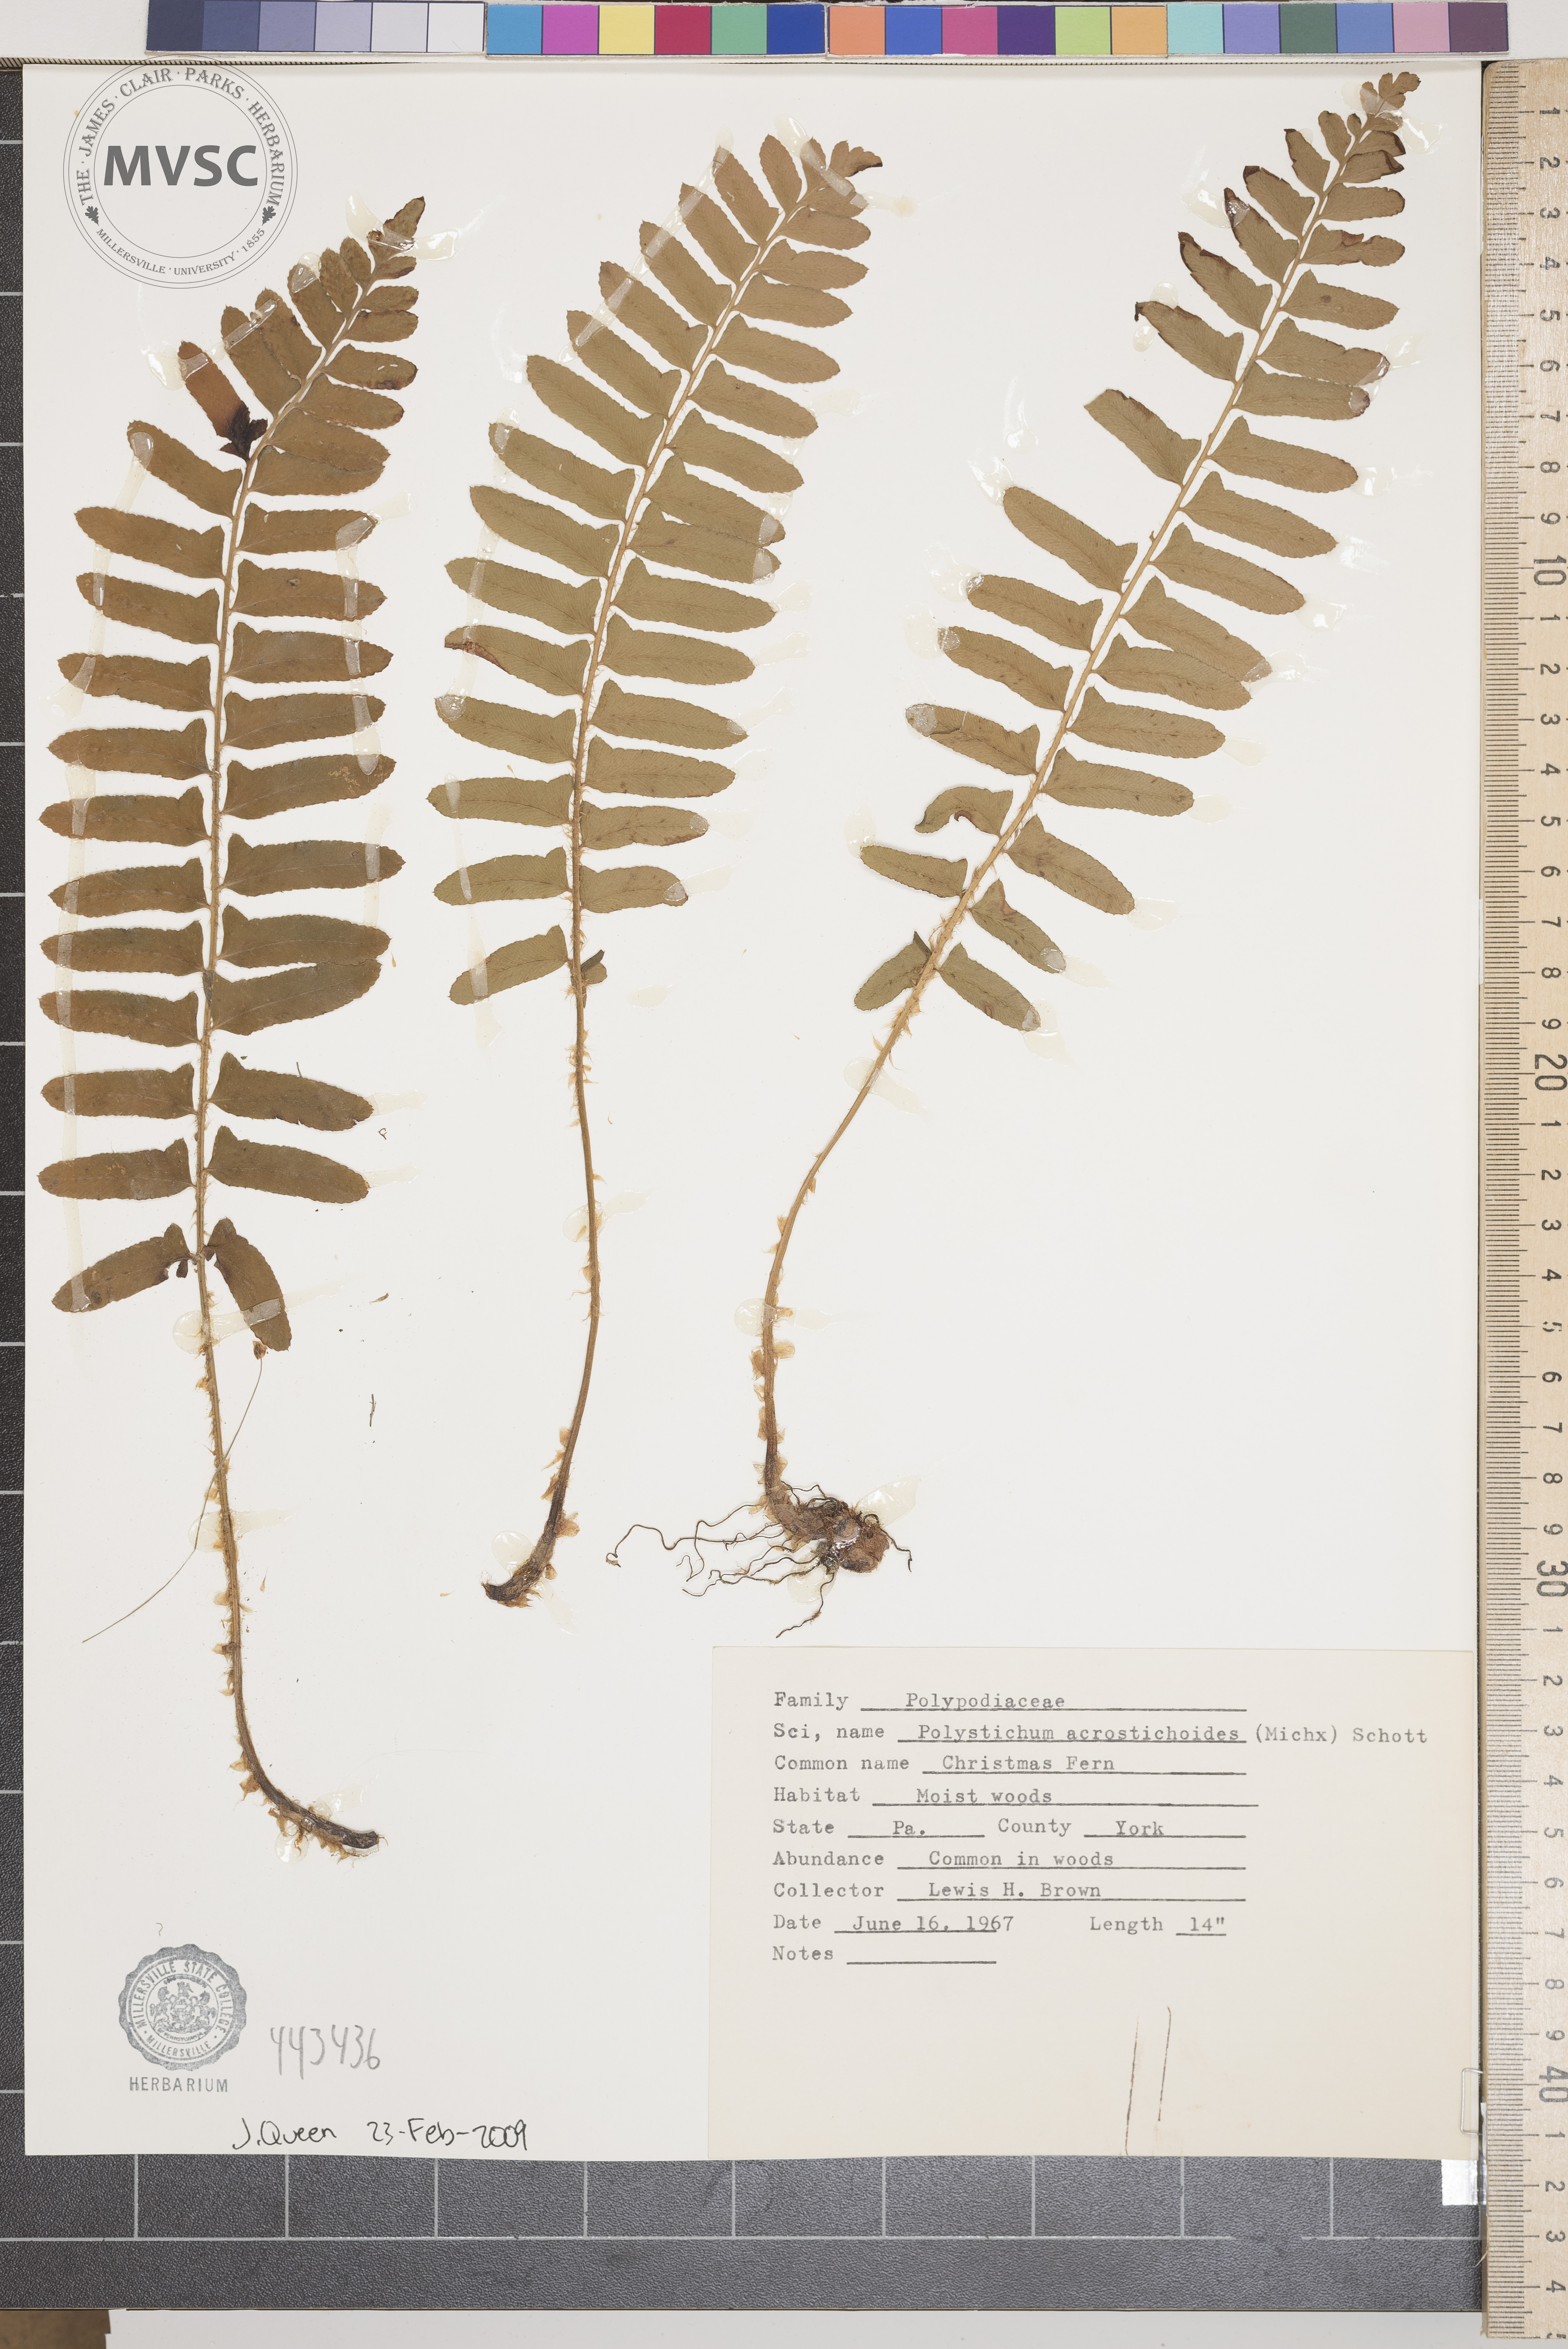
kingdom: Plantae
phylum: Tracheophyta
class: Polypodiopsida
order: Polypodiales
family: Dryopteridaceae
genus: Polystichum
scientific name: Polystichum acrostichoides
